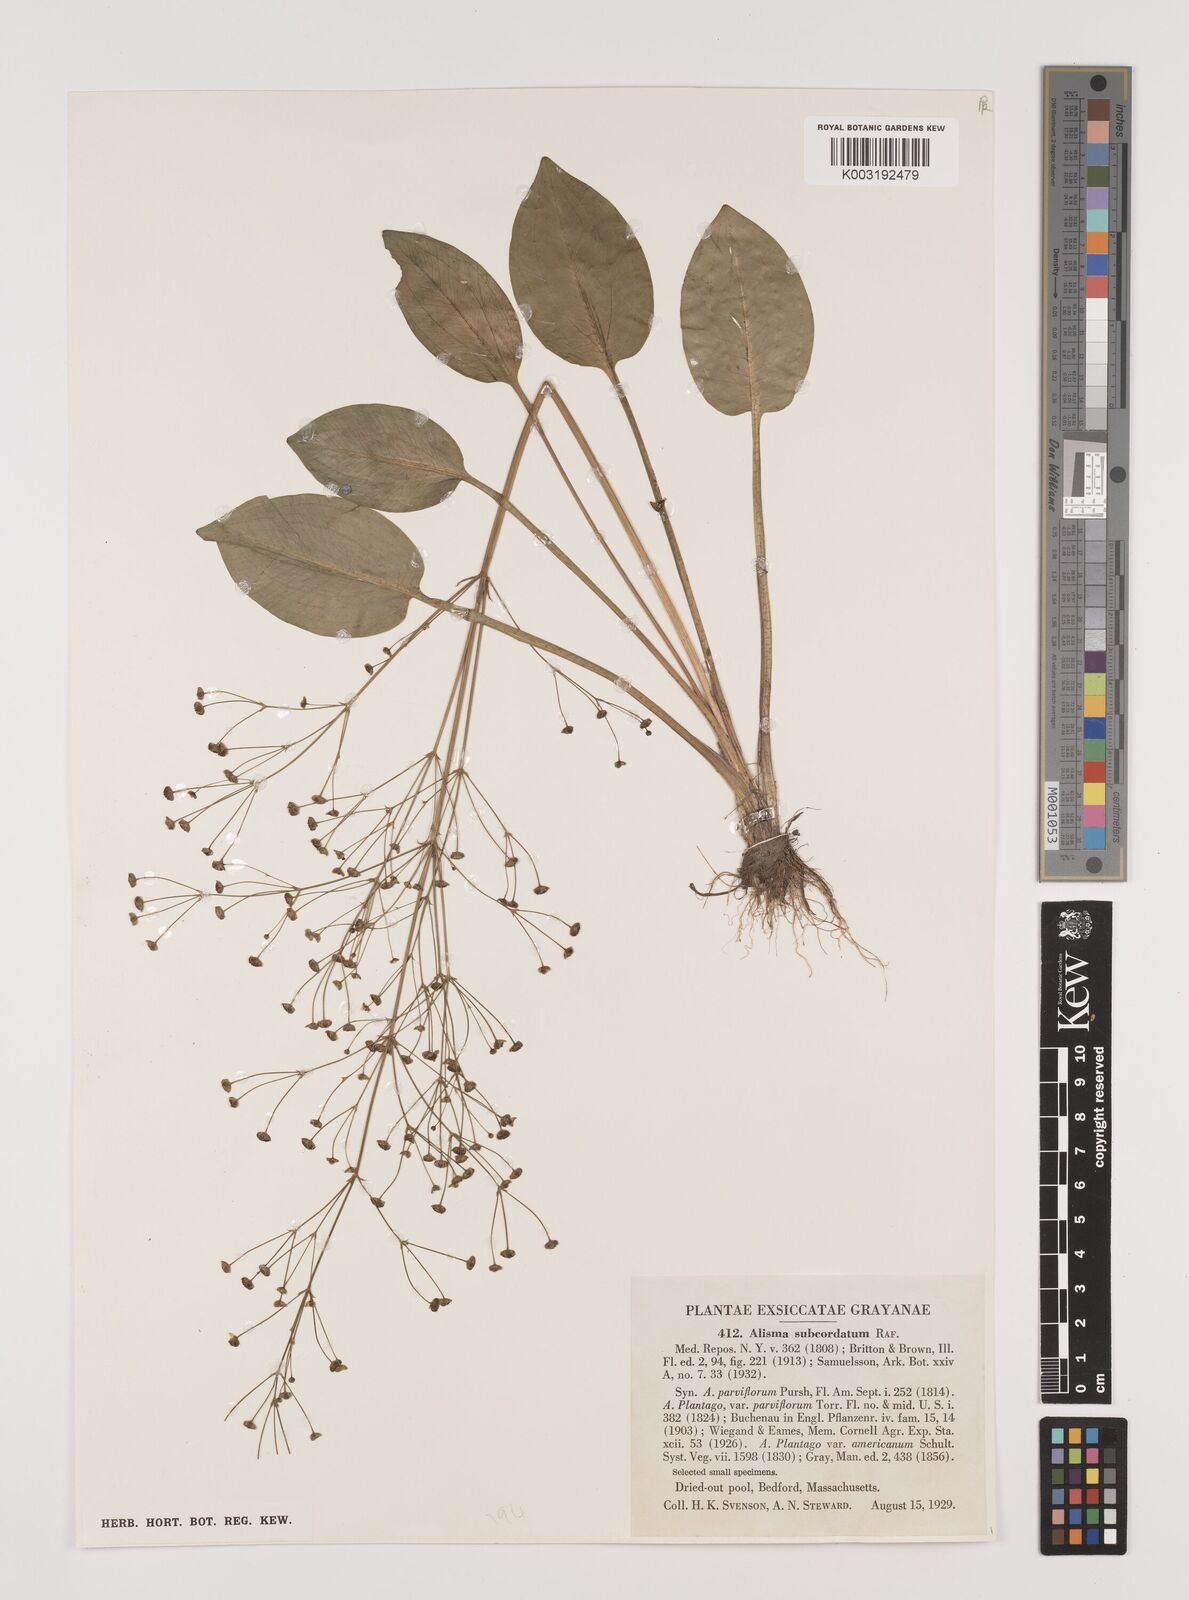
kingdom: Plantae
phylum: Tracheophyta
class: Liliopsida
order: Alismatales
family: Alismataceae
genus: Alisma
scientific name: Alisma subcordatum
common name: Southern water-plantain
